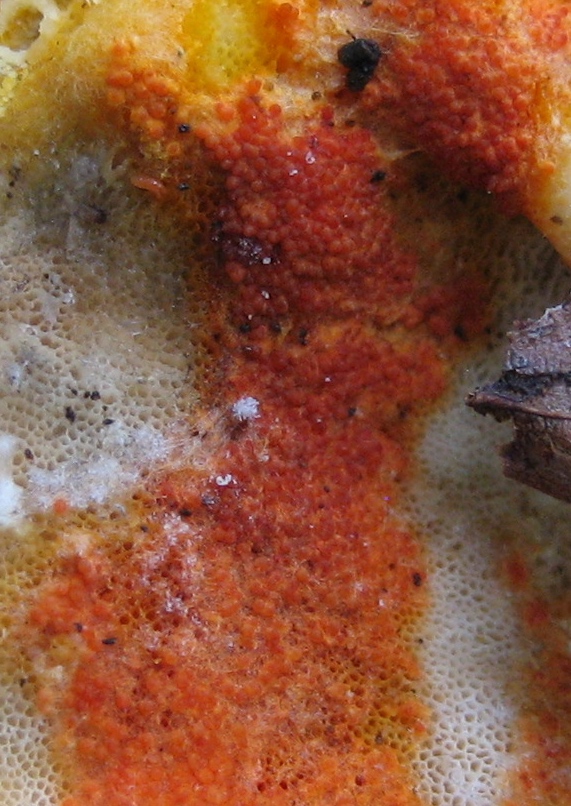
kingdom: Fungi
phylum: Ascomycota
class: Sordariomycetes
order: Hypocreales
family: Hypocreaceae
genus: Hypomyces
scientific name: Hypomyces aurantius
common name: almindelig snylteskorpe
